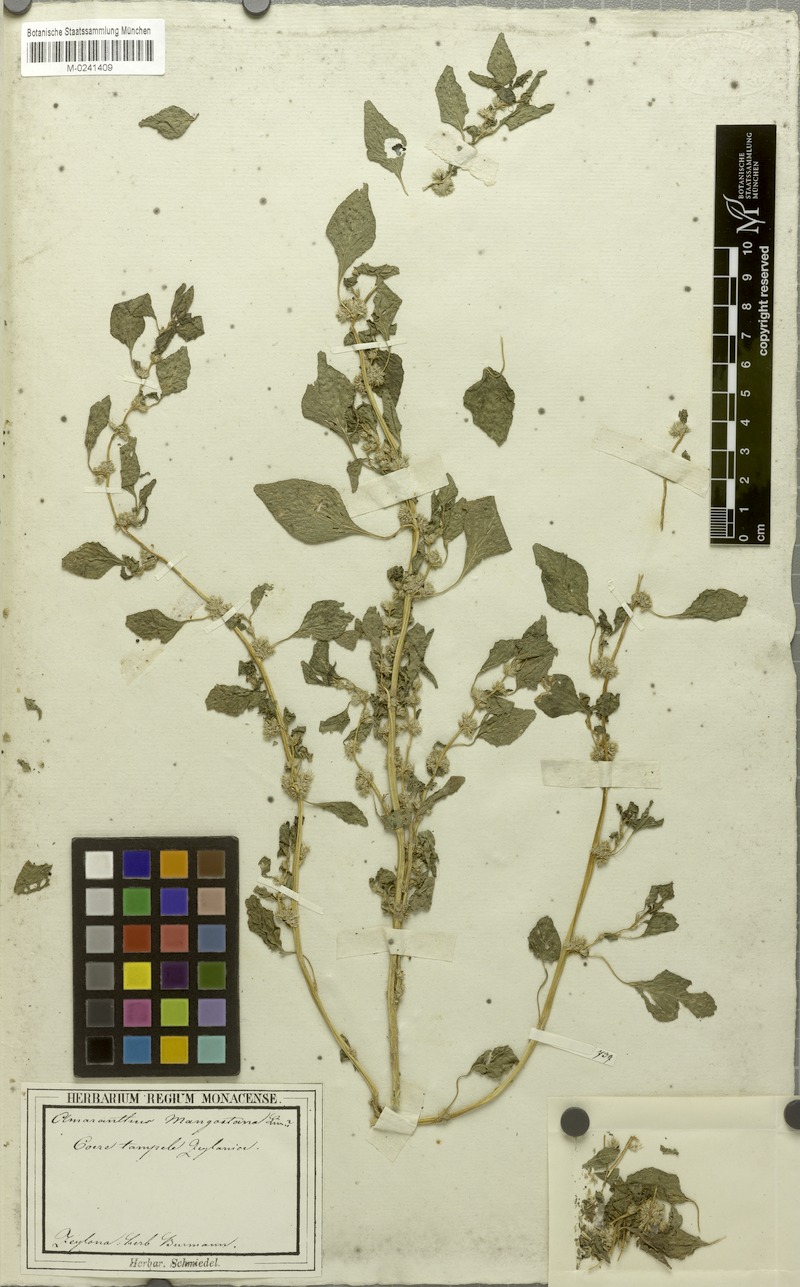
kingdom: Plantae
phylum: Tracheophyta
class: Magnoliopsida
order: Caryophyllales
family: Amaranthaceae
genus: Amaranthus
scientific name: Amaranthus tricolor
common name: Joseph's-coat
